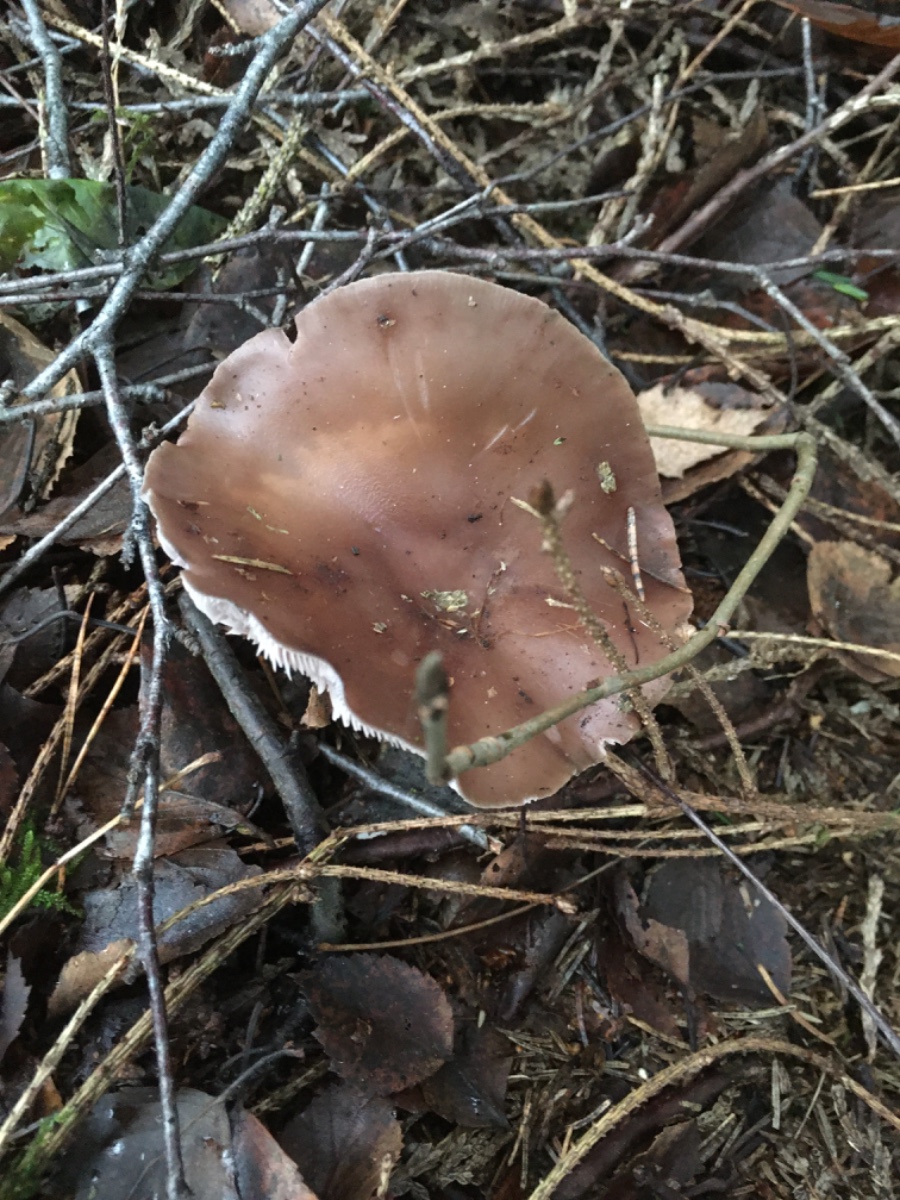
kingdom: Fungi
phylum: Basidiomycota
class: Agaricomycetes
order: Agaricales
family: Tricholomataceae
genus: Lepista
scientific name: Lepista
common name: hekseringshat
